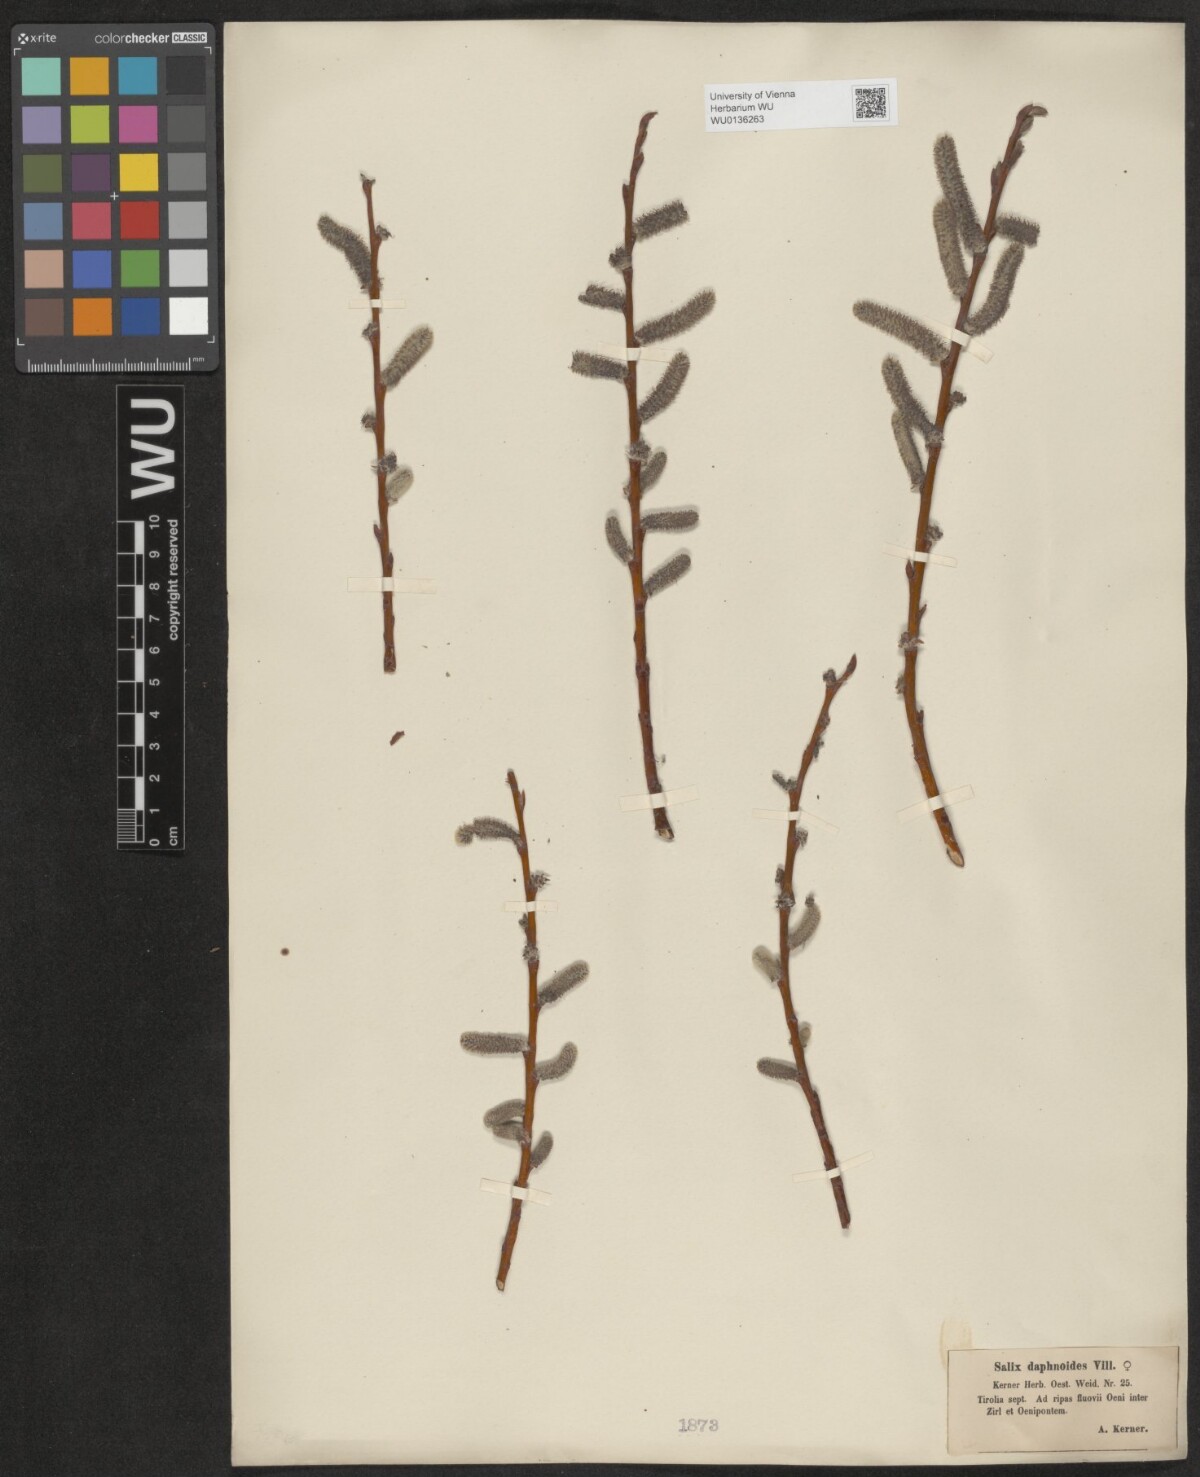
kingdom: Plantae
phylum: Tracheophyta
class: Magnoliopsida
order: Malpighiales
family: Salicaceae
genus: Salix
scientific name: Salix daphnoides
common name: European violet-willow
